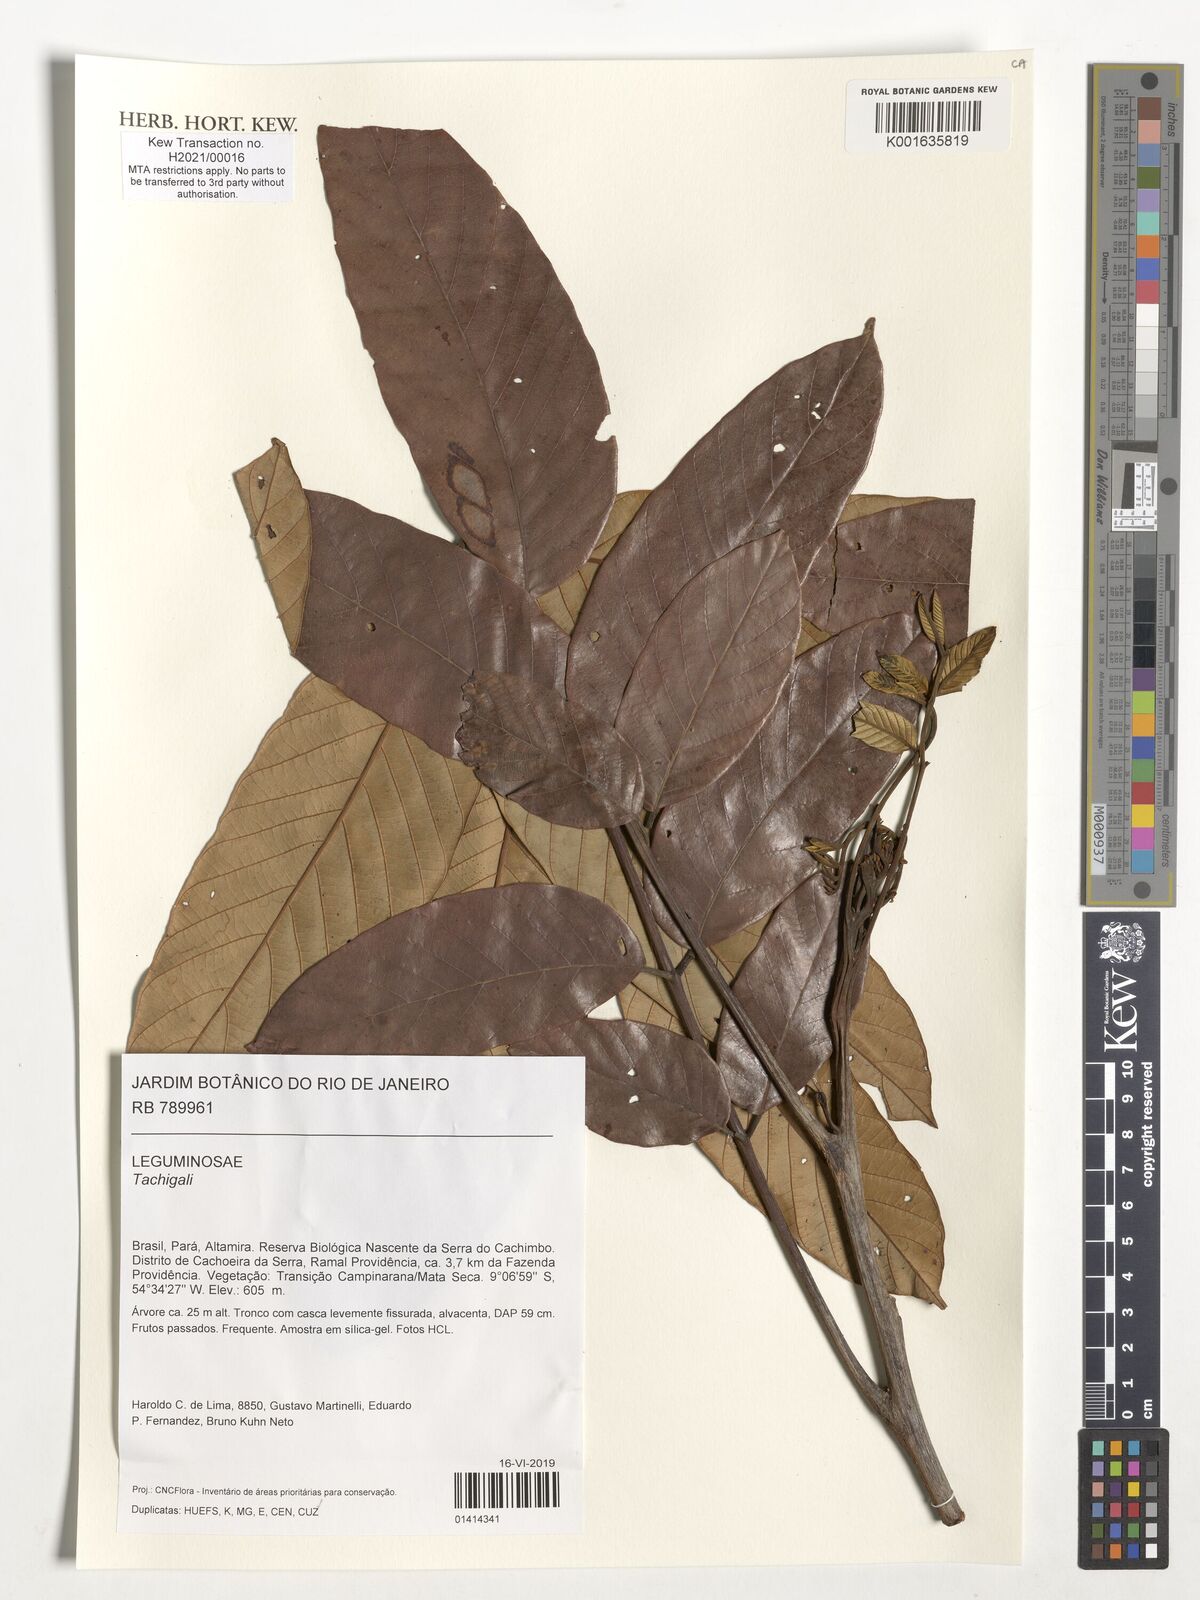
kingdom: Plantae
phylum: Tracheophyta
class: Magnoliopsida
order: Fabales
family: Fabaceae
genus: Tachigali
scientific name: Tachigali
